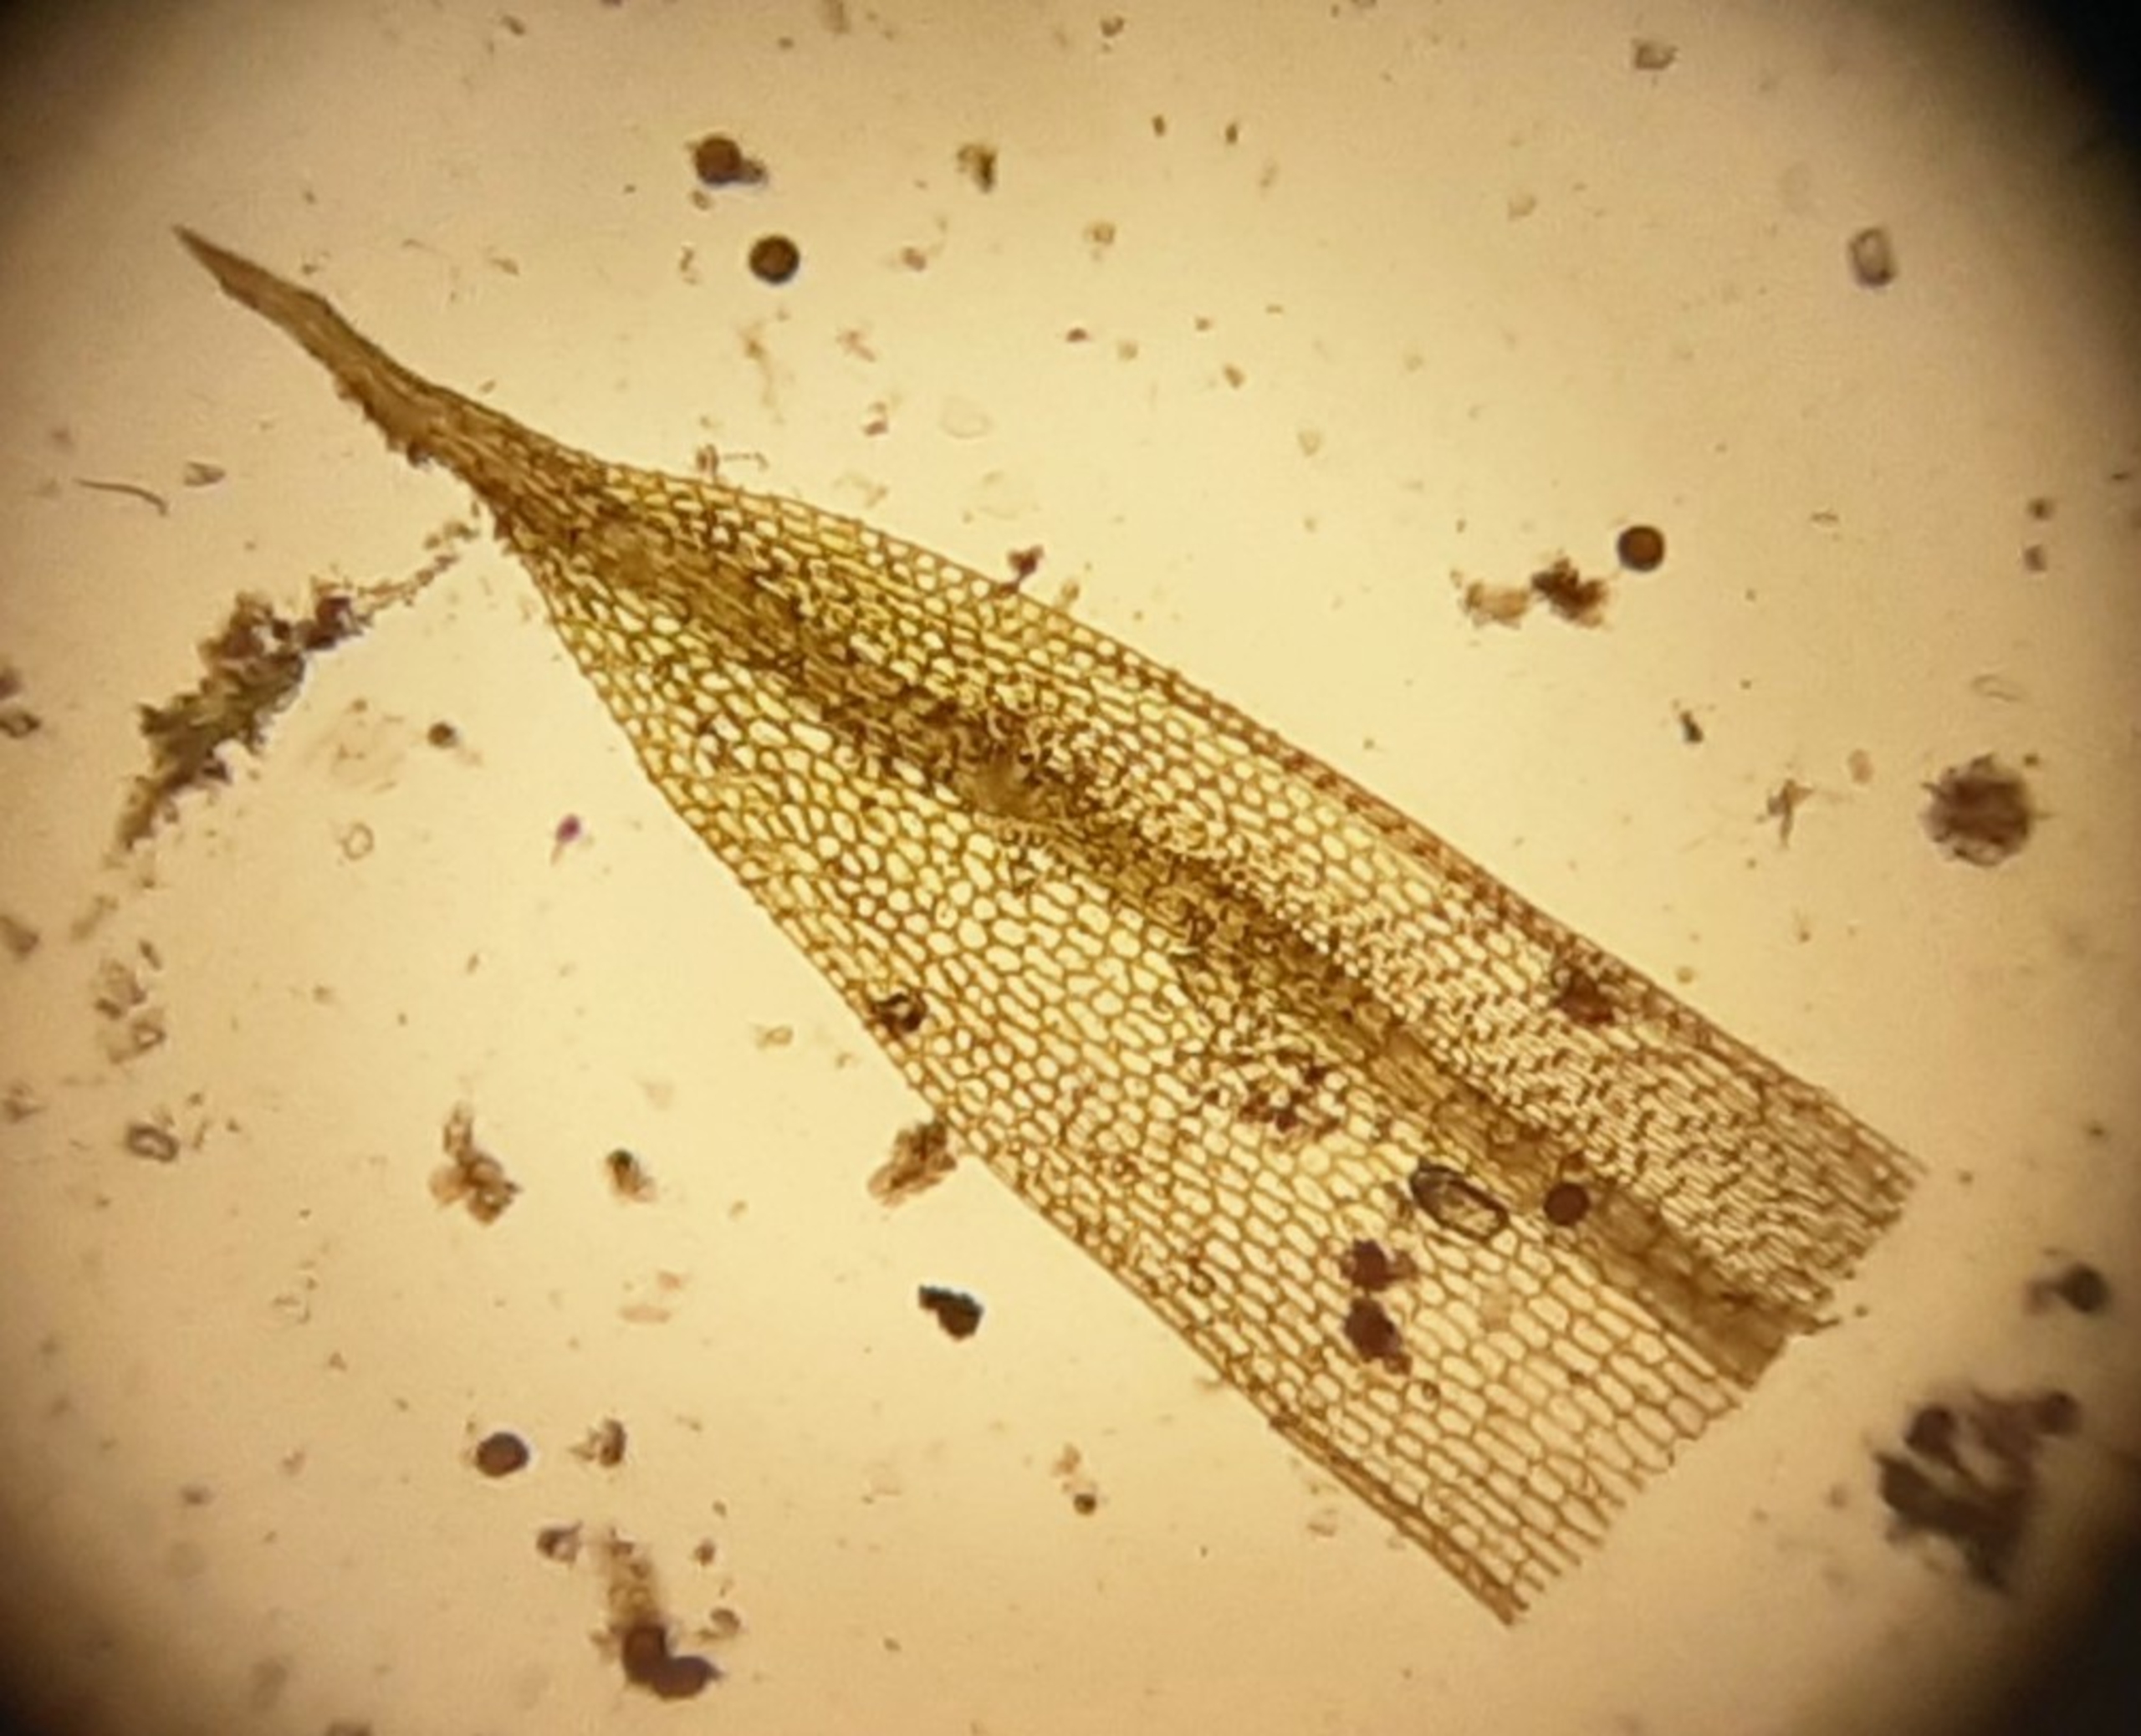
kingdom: Plantae
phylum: Bryophyta
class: Bryopsida
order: Pottiales
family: Pottiaceae
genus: Tortula
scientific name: Tortula acaulon
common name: Tilspidset dværgmos
